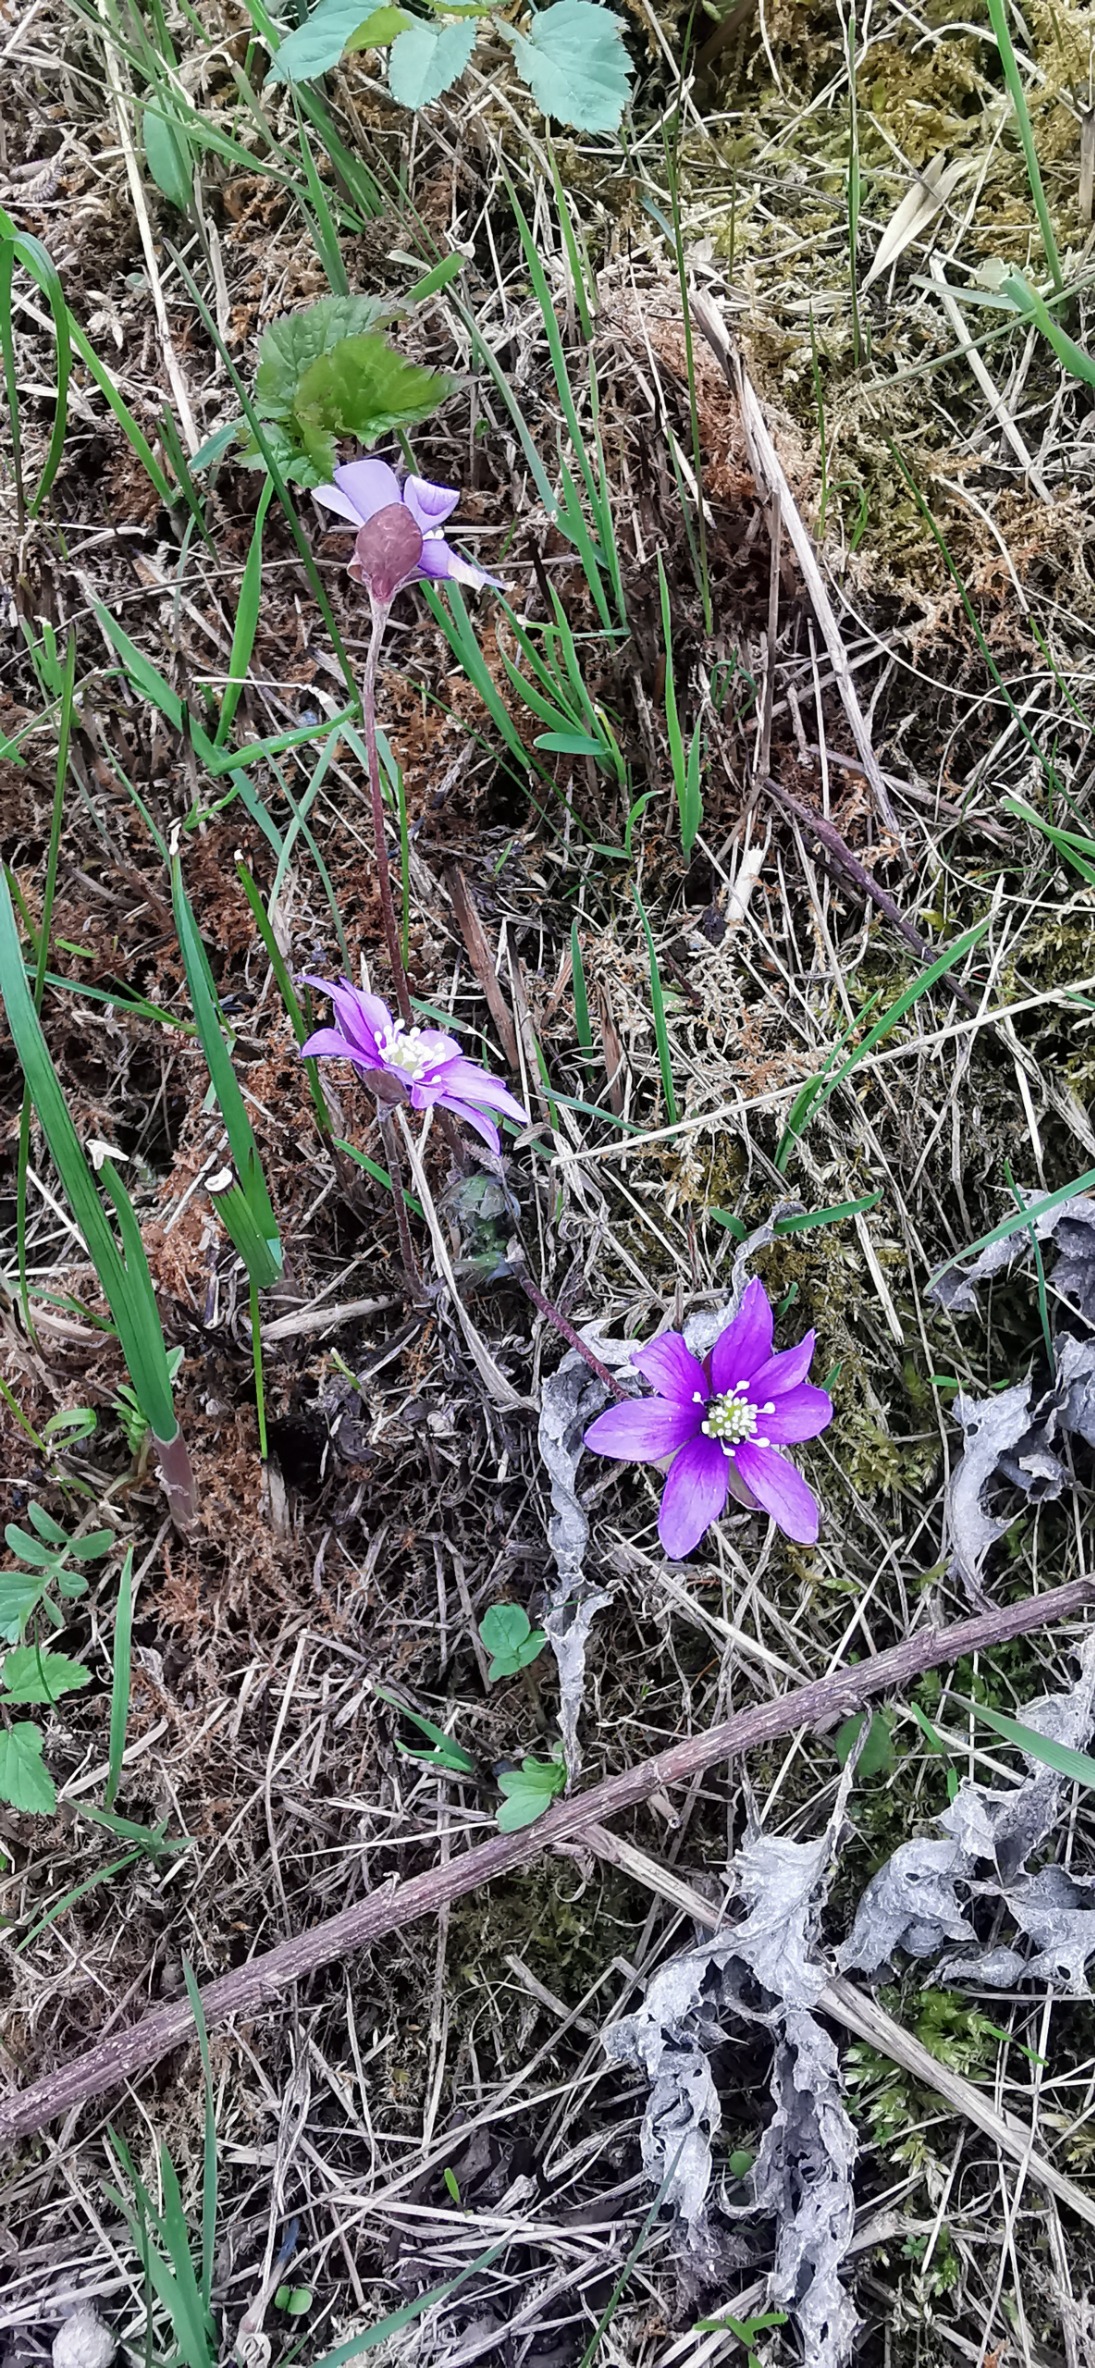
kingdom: Plantae
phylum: Tracheophyta
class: Magnoliopsida
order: Ranunculales
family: Ranunculaceae
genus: Hepatica
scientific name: Hepatica nobilis
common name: Blå anemone
